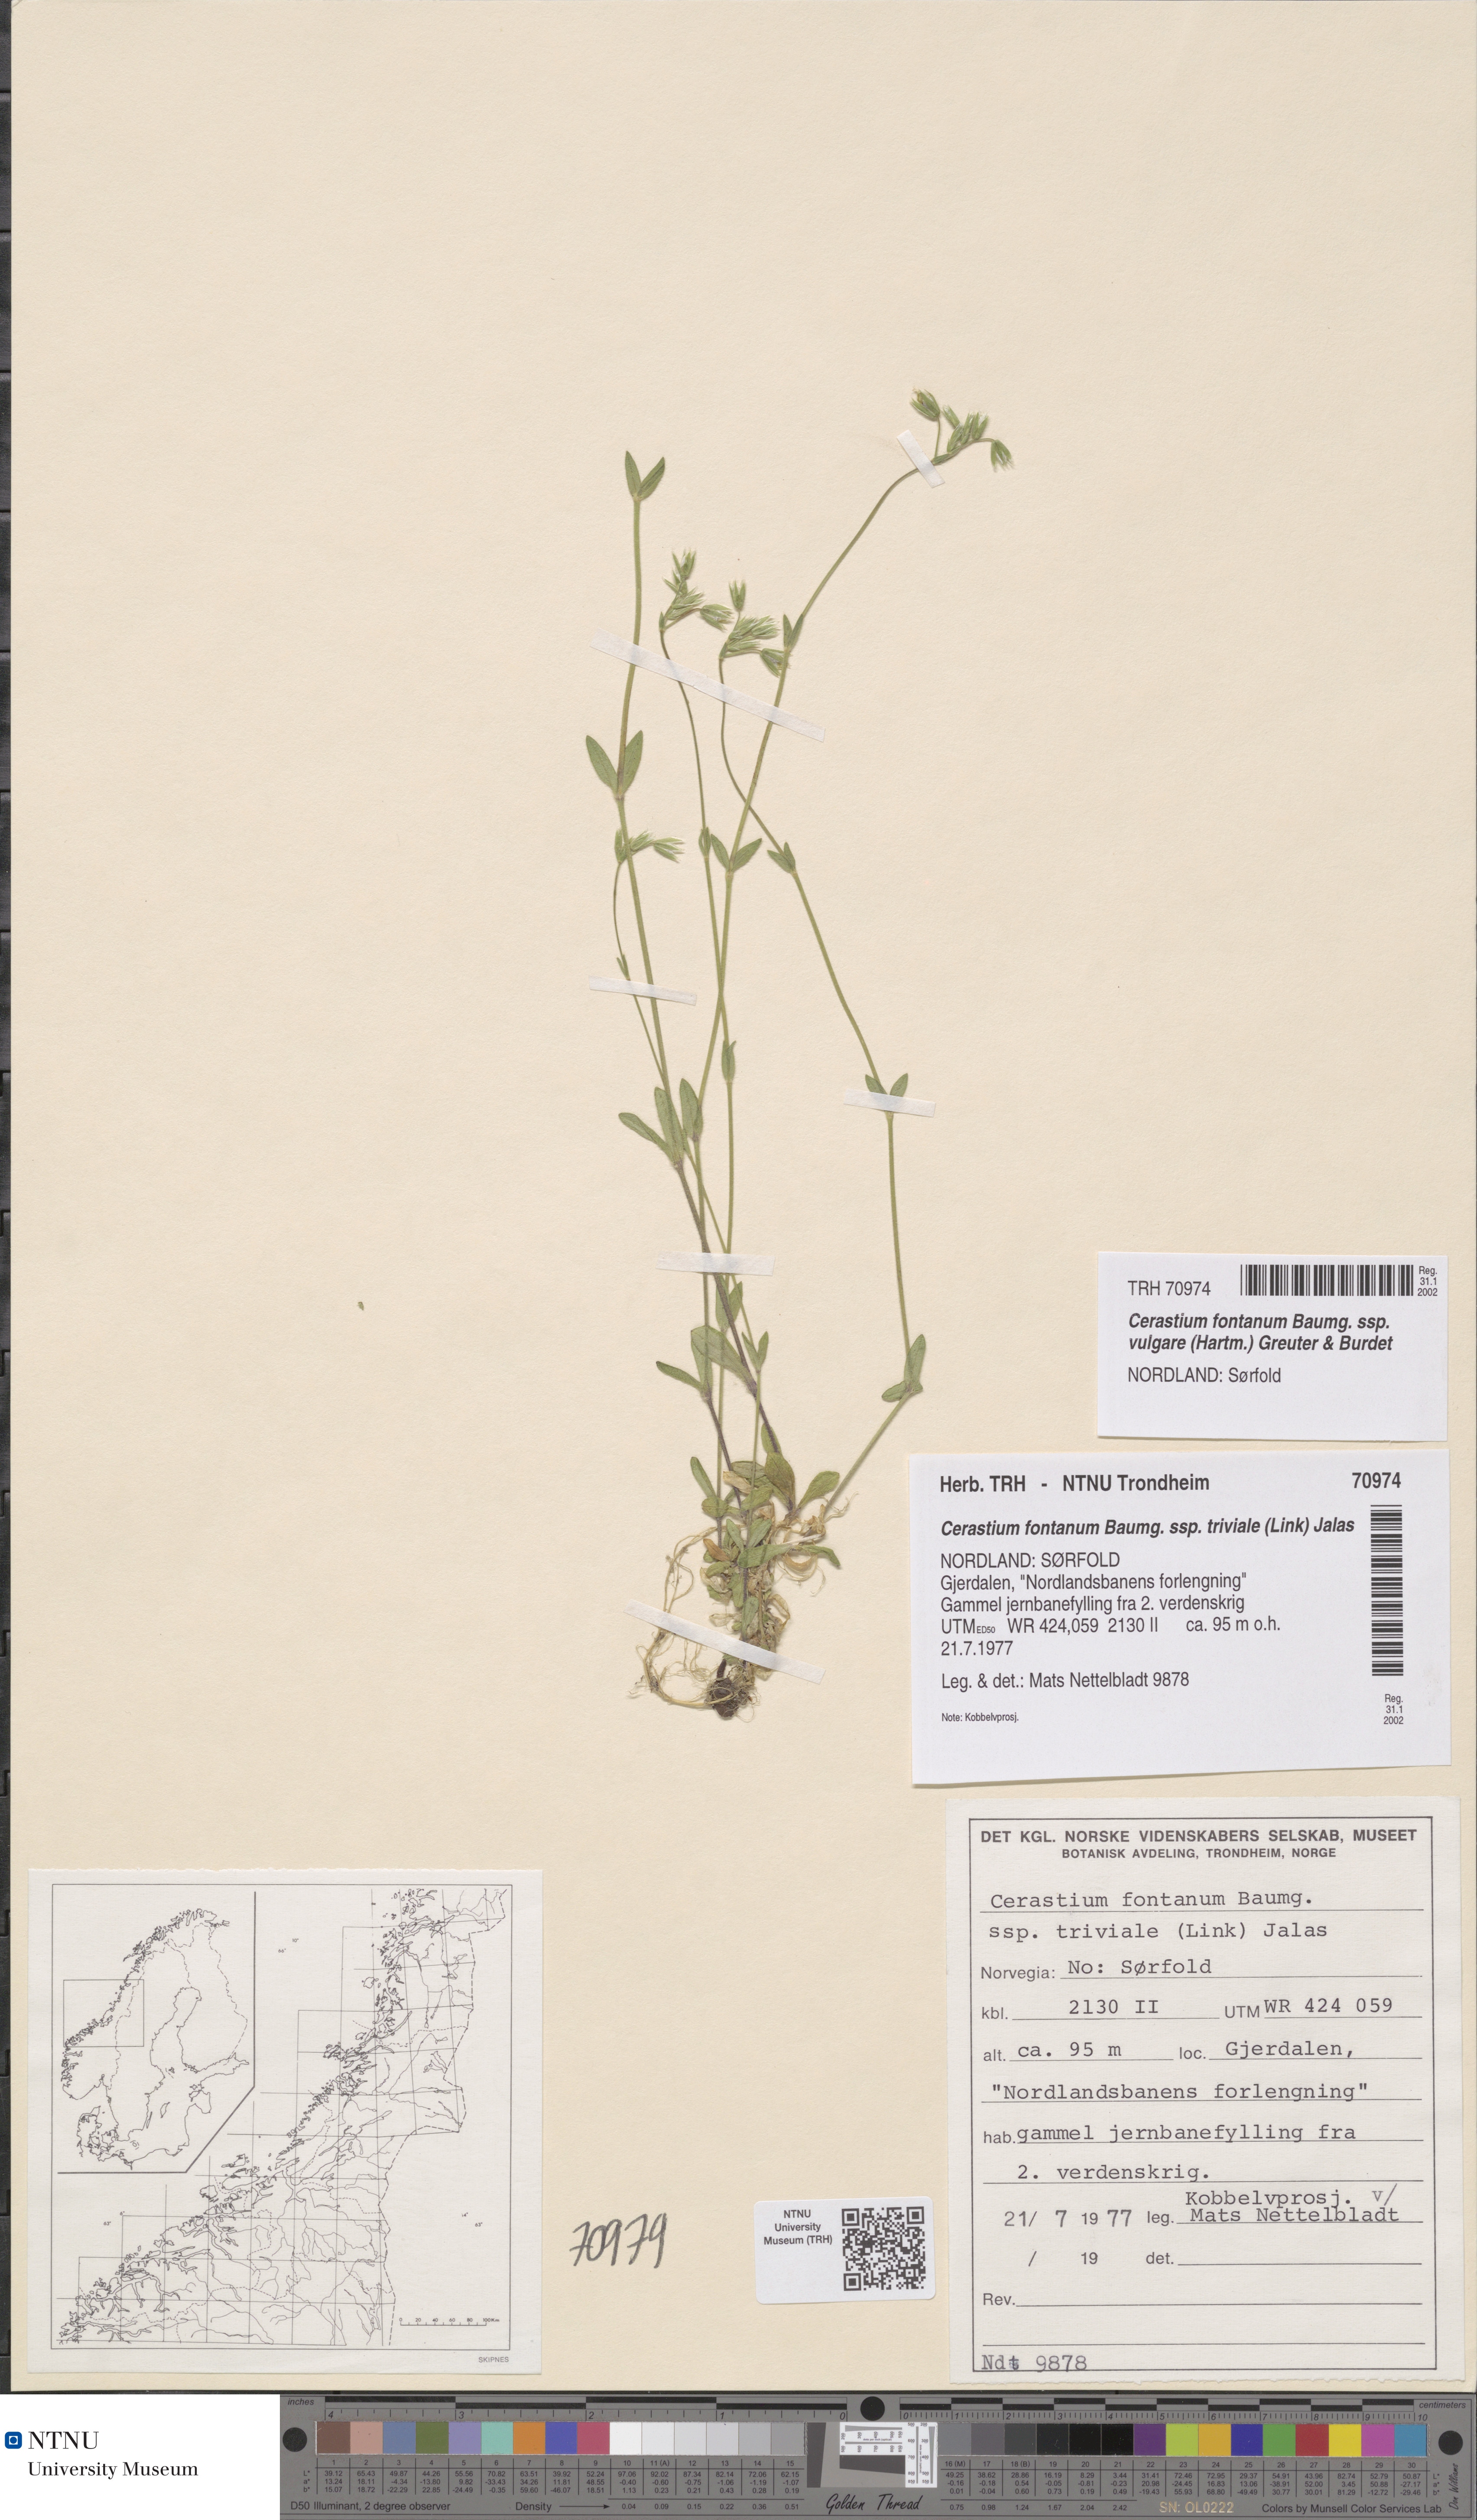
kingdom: Plantae
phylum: Tracheophyta
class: Magnoliopsida
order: Caryophyllales
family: Caryophyllaceae
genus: Cerastium
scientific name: Cerastium holosteoides
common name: Big chickweed
